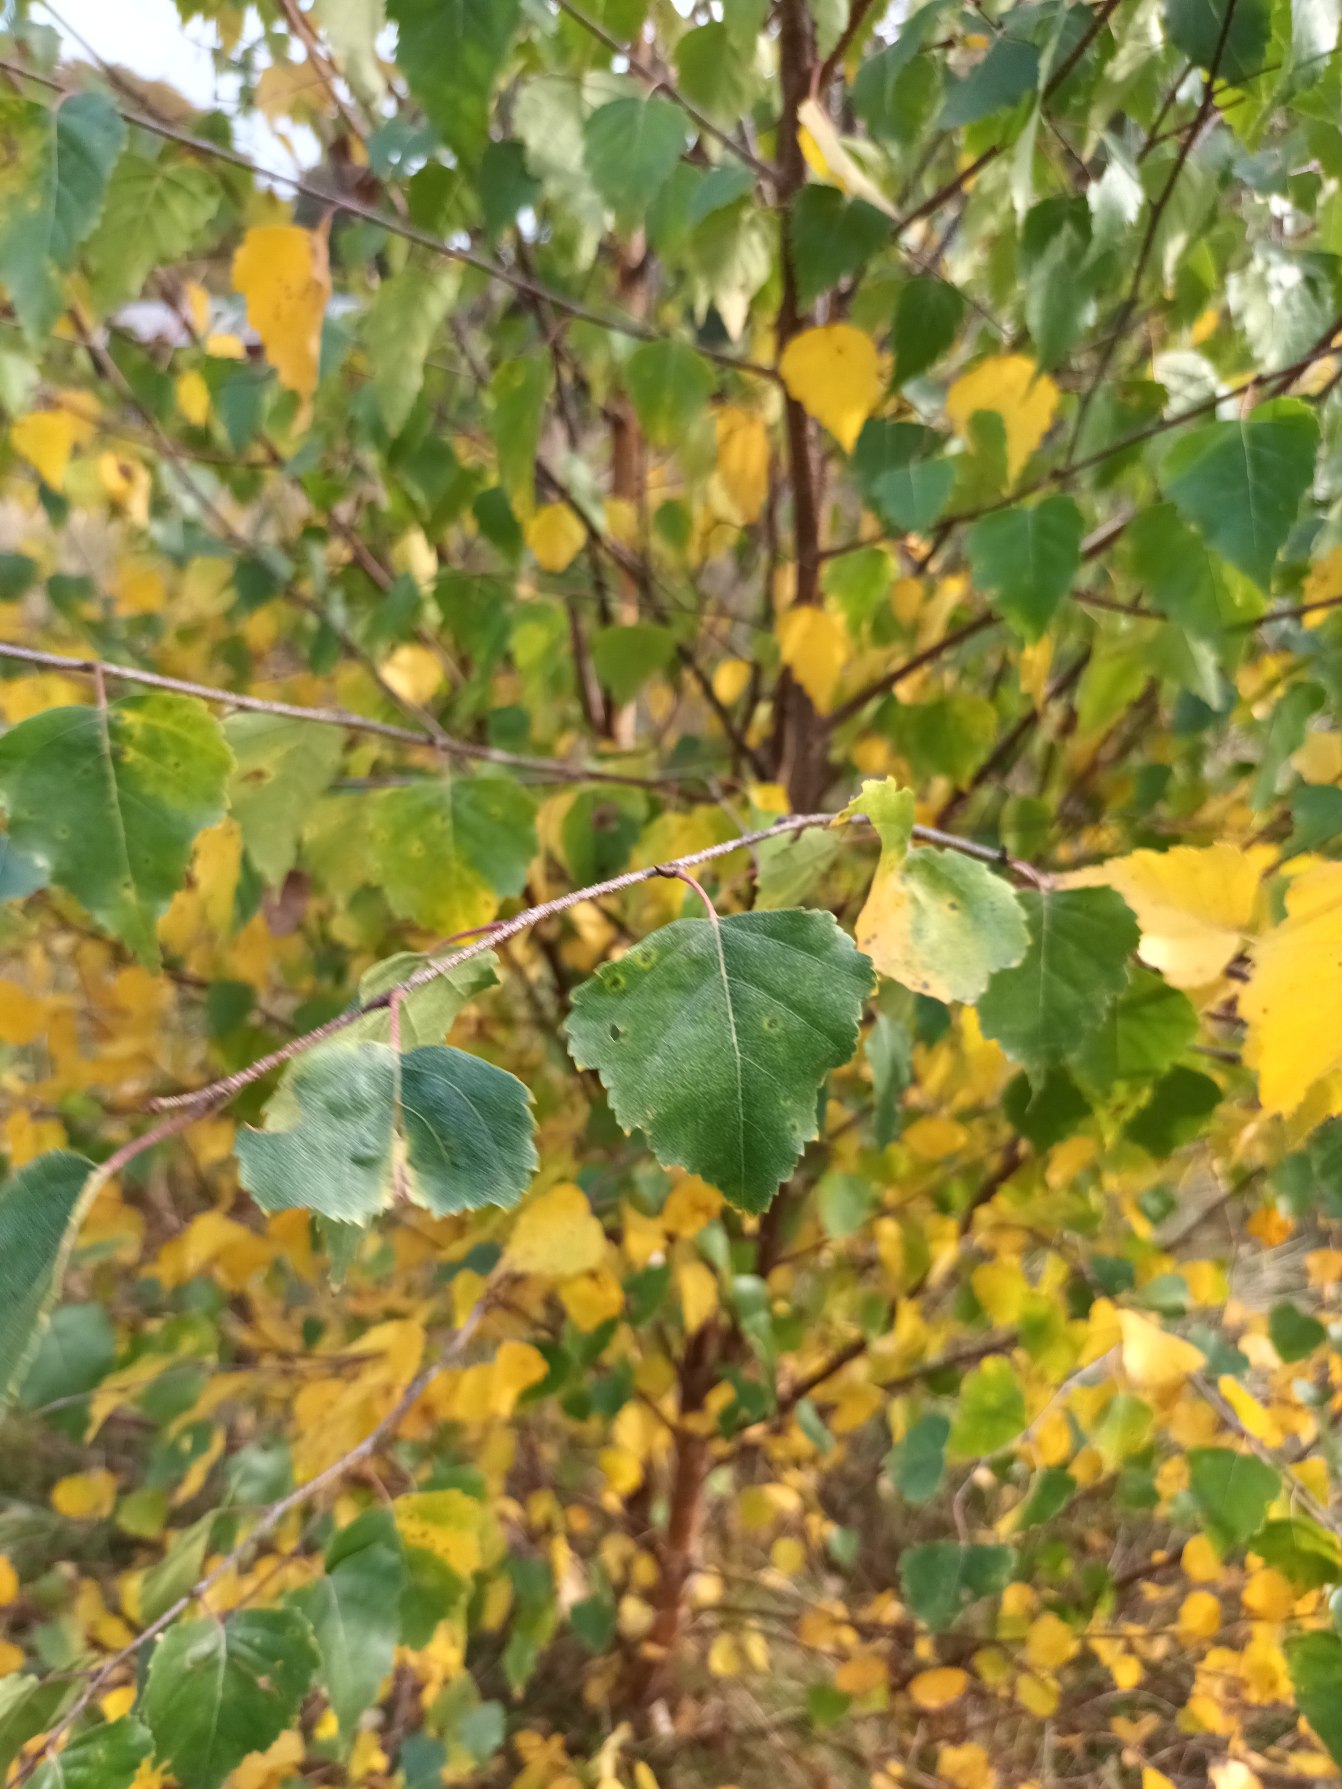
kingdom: Plantae
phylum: Tracheophyta
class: Magnoliopsida
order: Fagales
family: Betulaceae
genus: Betula
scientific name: Betula pendula
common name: Vorte-birk
